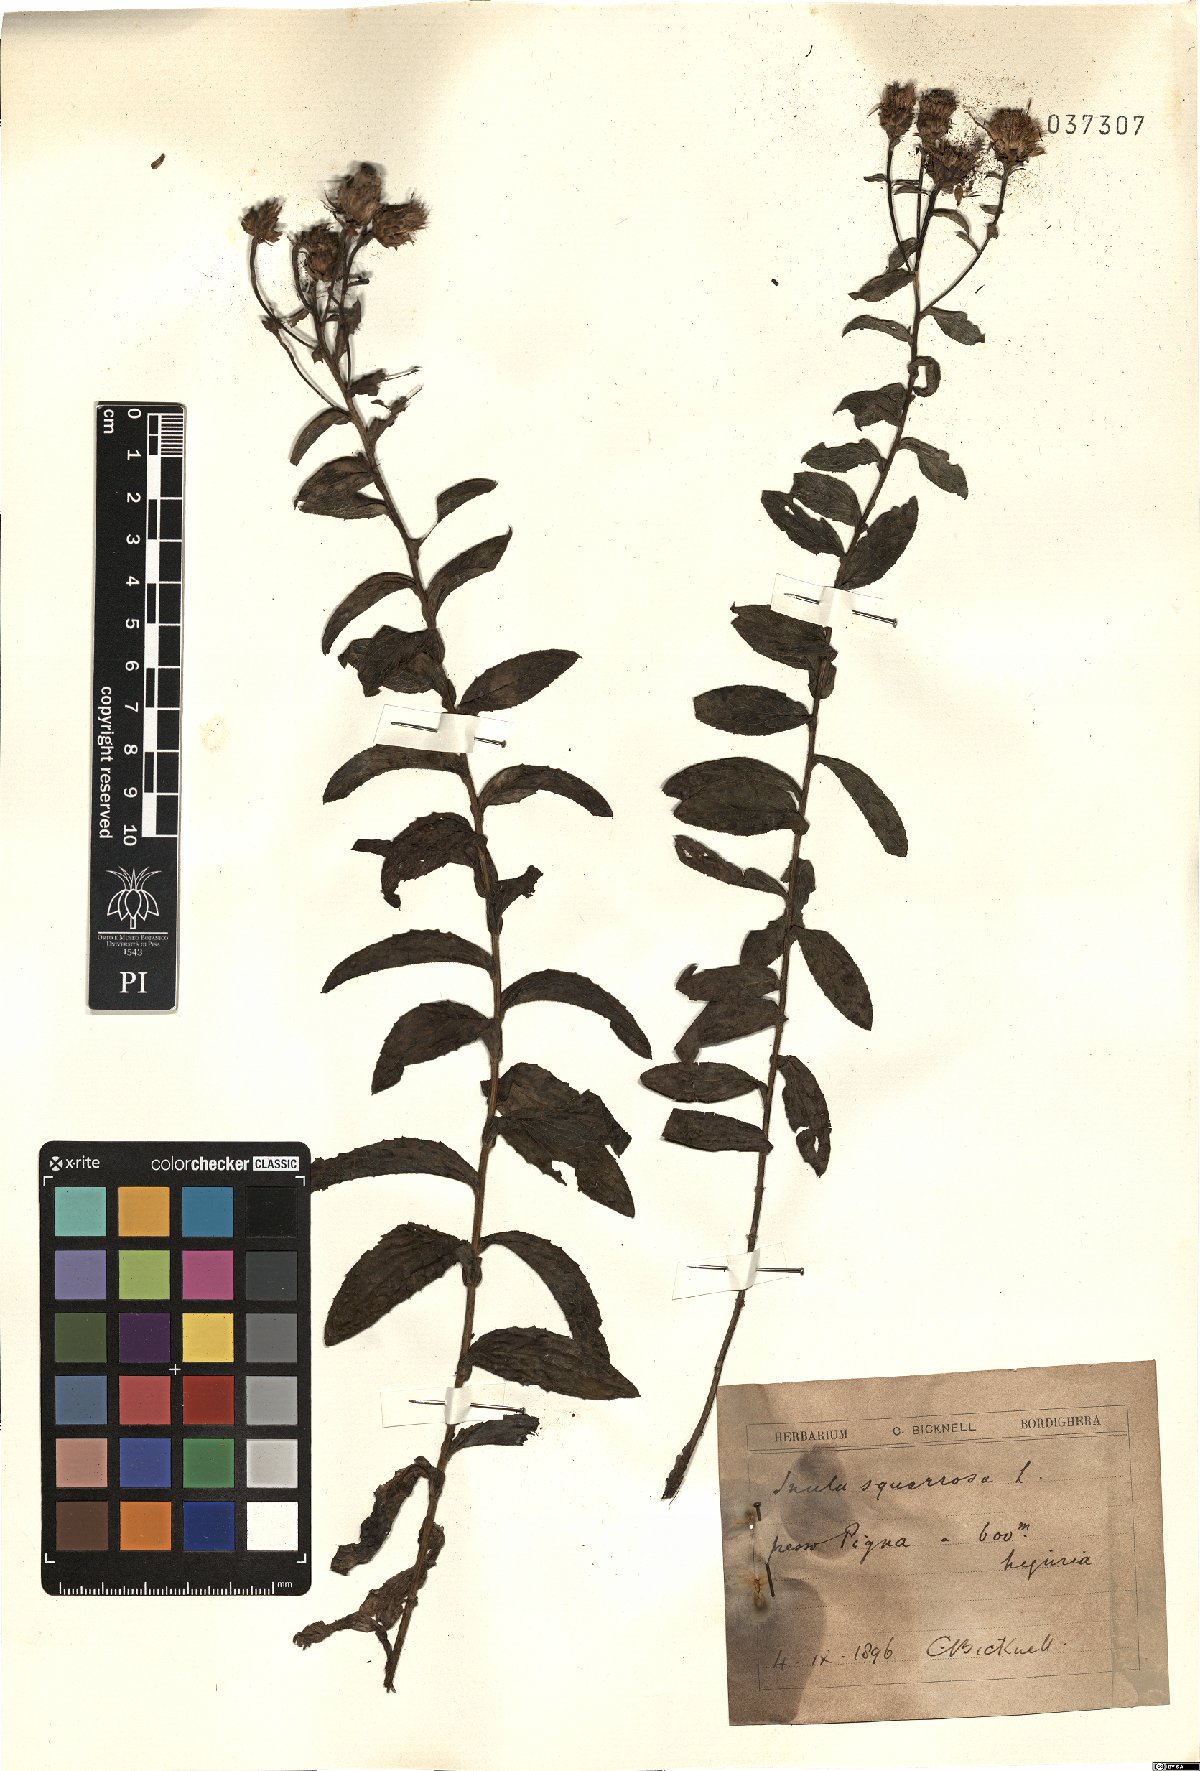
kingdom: Plantae
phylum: Tracheophyta
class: Magnoliopsida
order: Asterales
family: Asteraceae
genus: Pentanema
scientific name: Pentanema spiraeifolium
